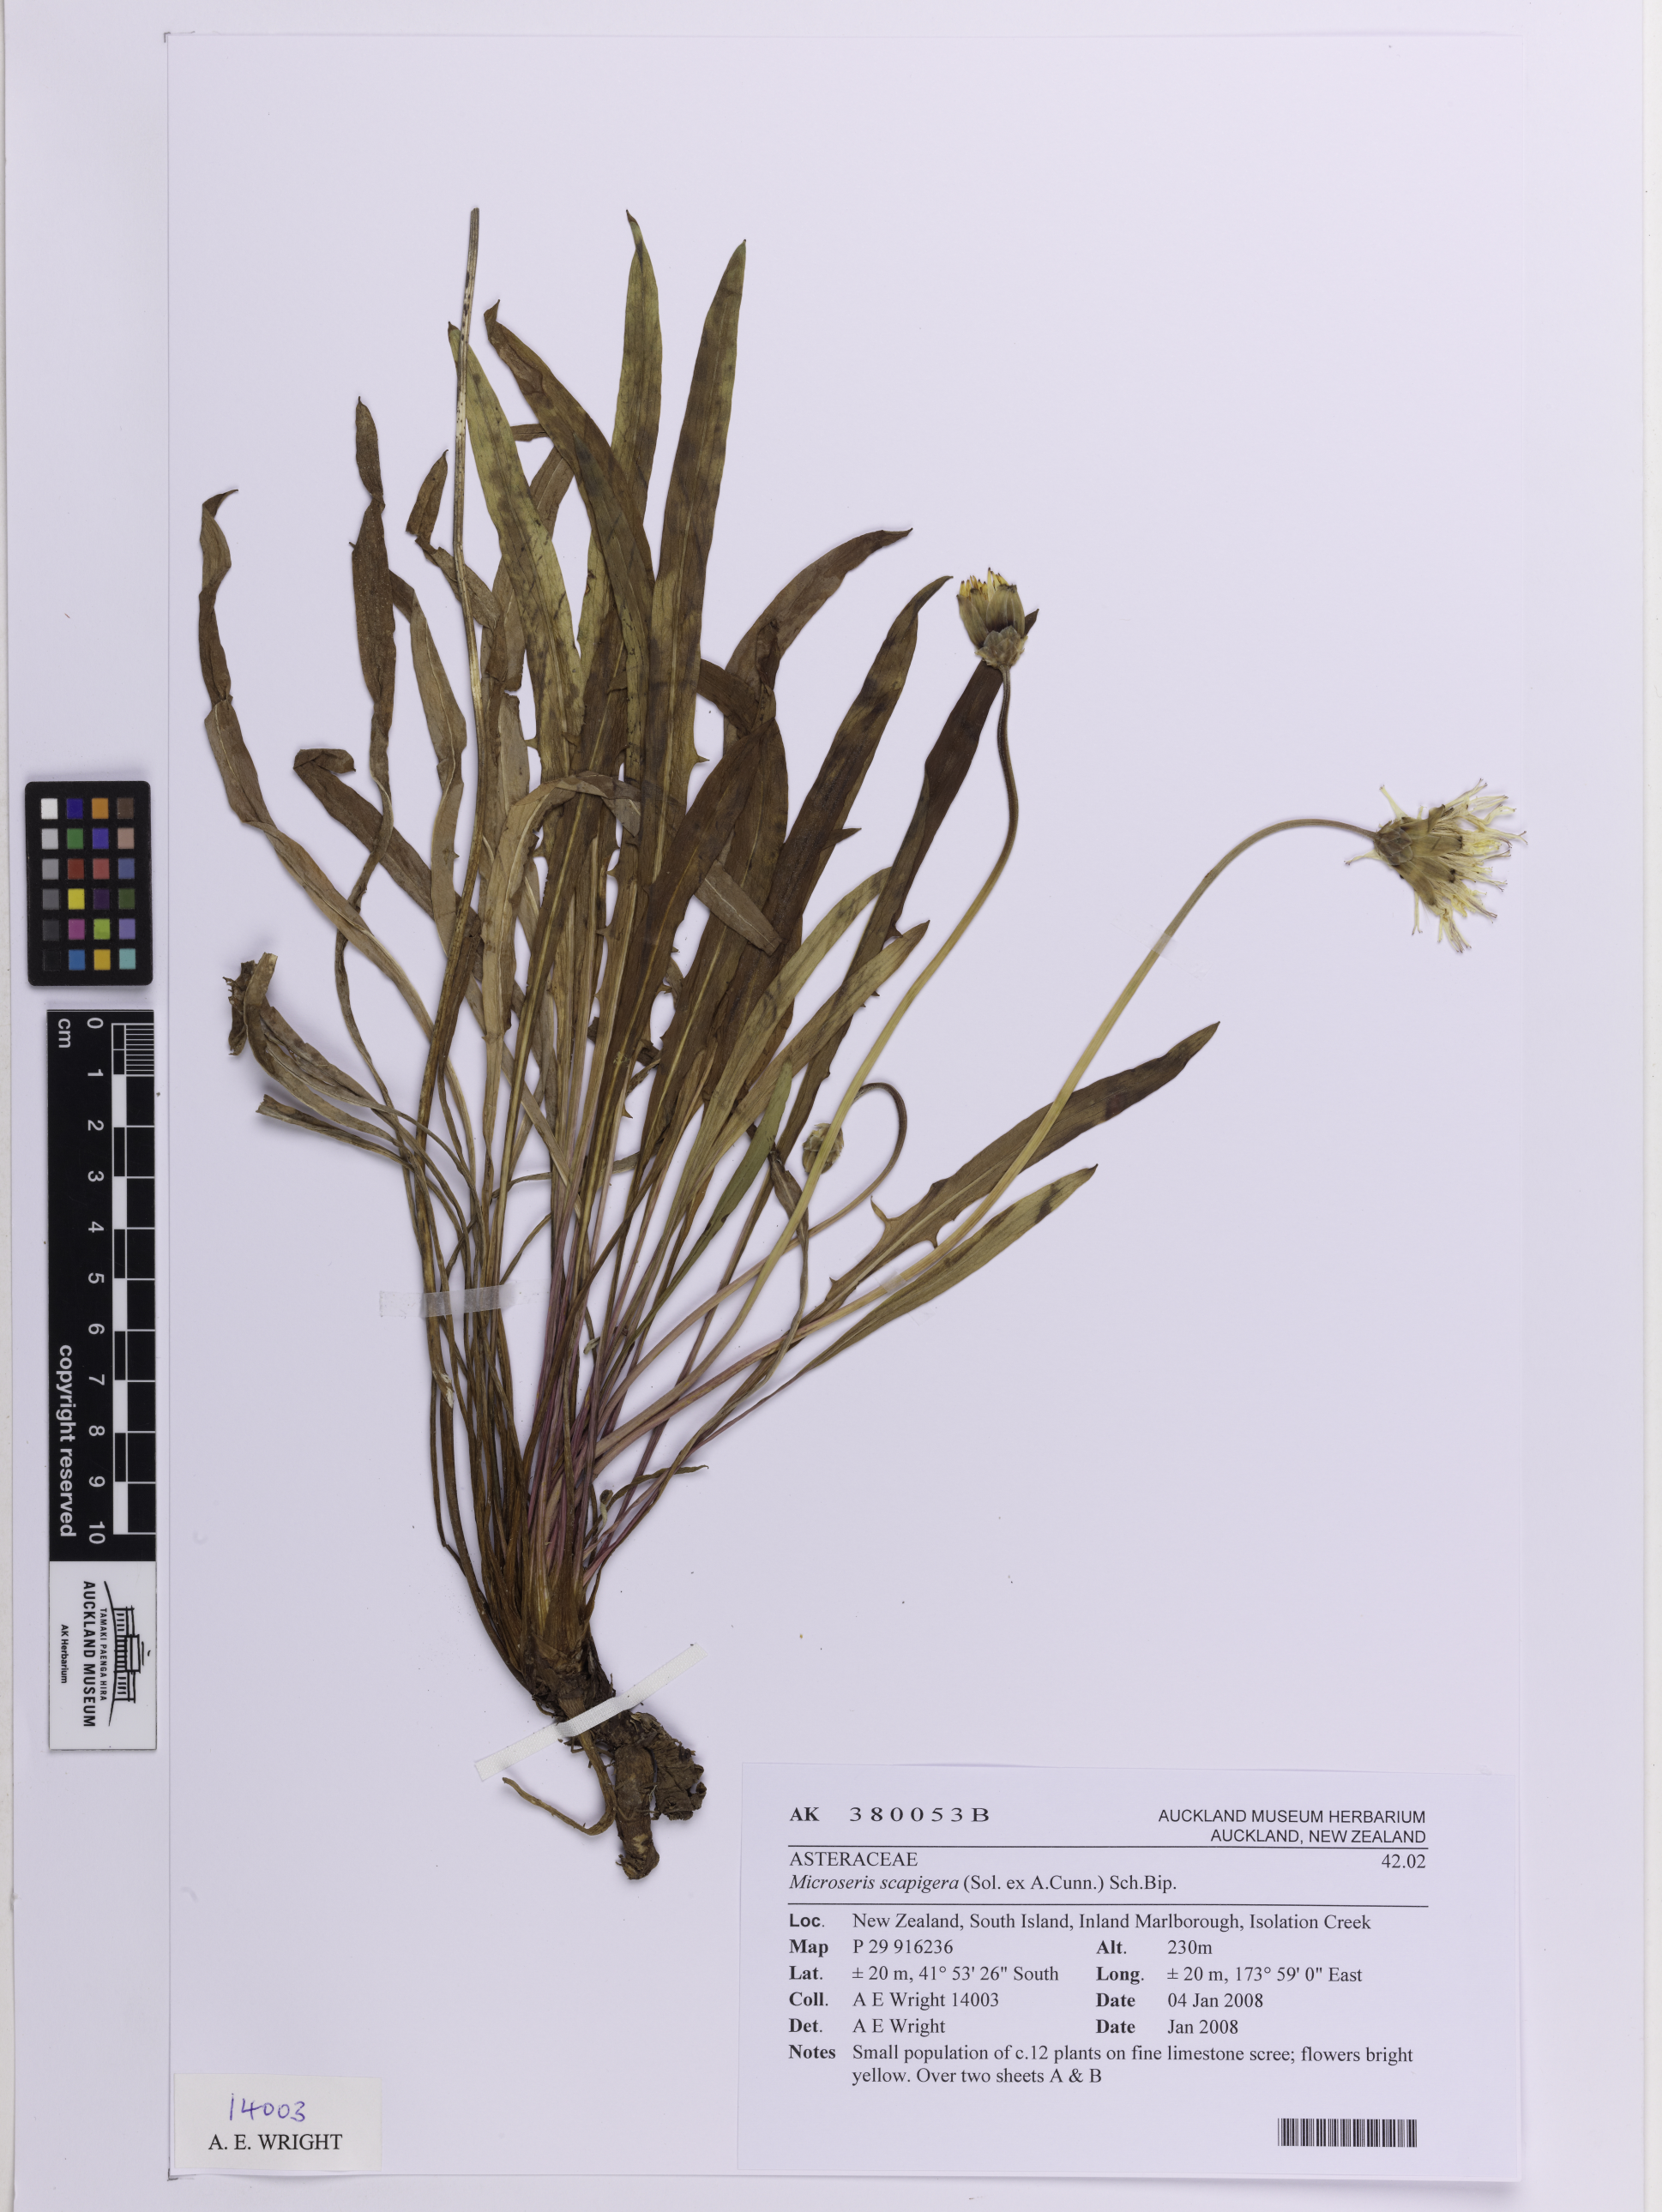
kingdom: Plantae
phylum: Tracheophyta
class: Magnoliopsida
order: Asterales
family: Asteraceae
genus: Microseris
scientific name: Microseris scapigera
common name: Yam daisy
